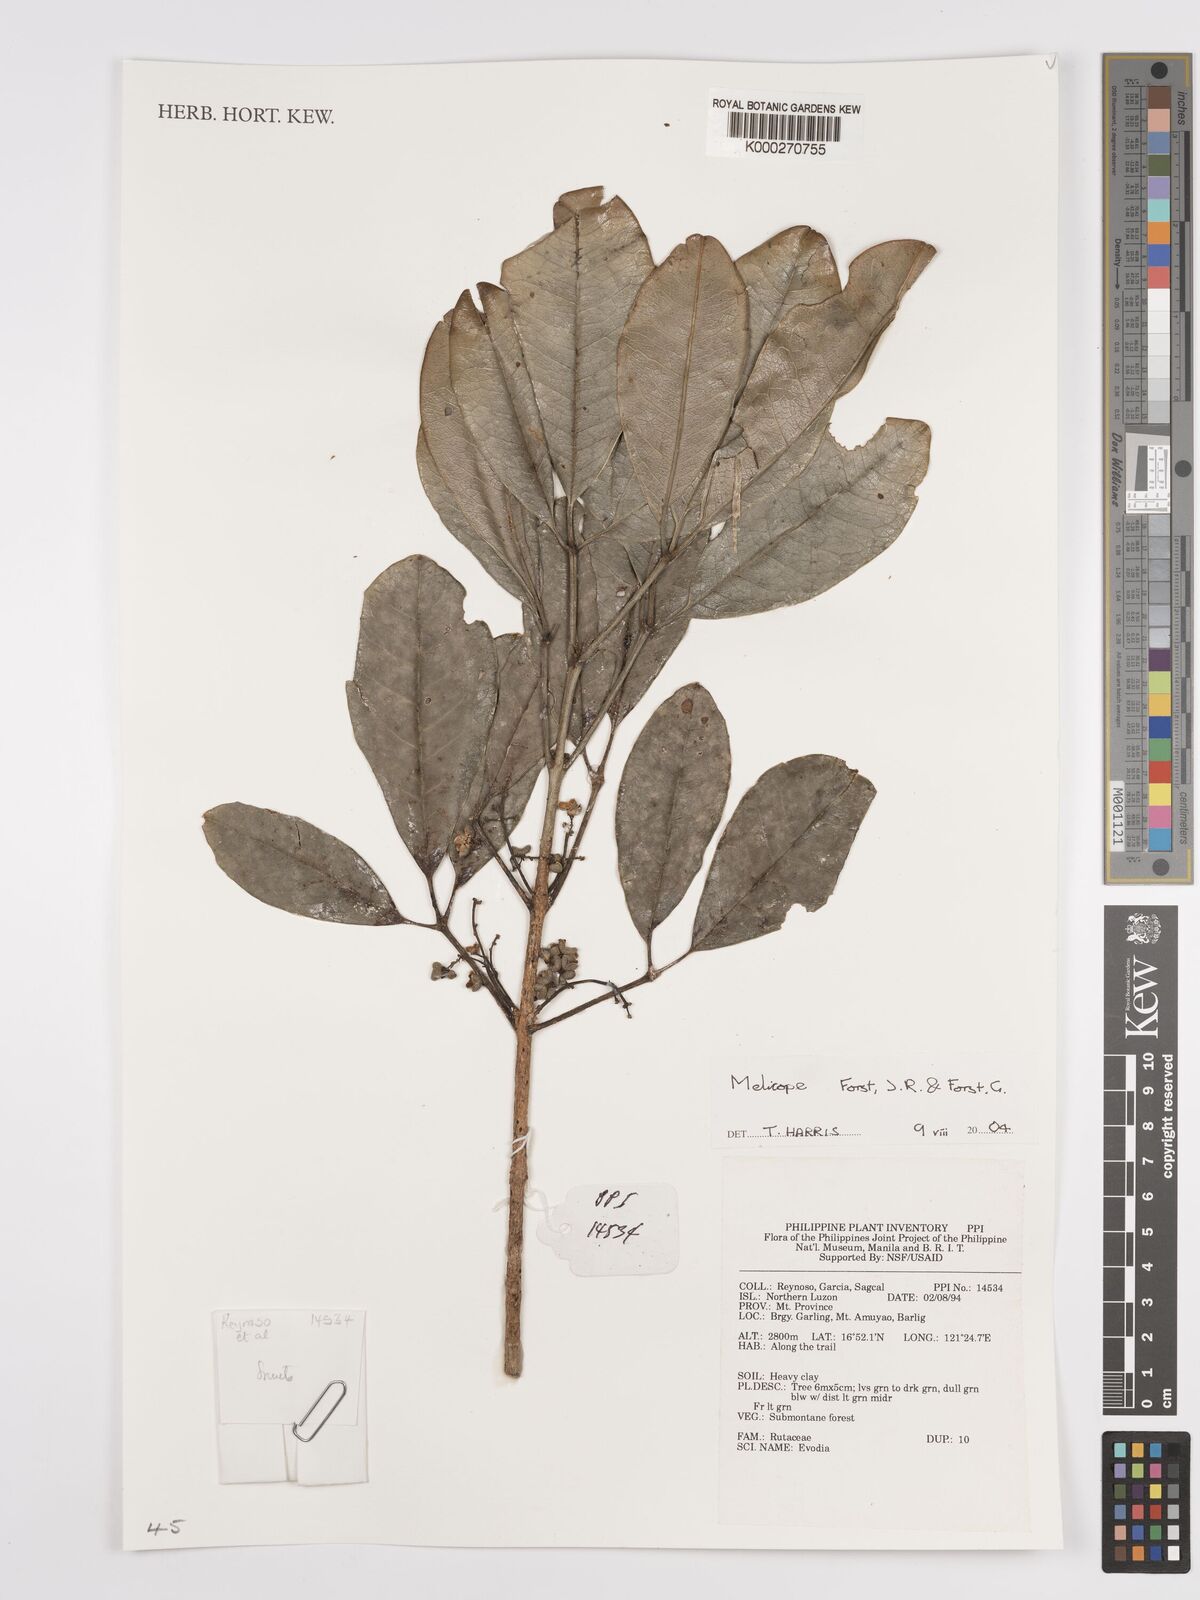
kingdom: Plantae
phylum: Tracheophyta
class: Magnoliopsida
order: Sapindales
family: Rutaceae
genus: Melicope
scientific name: Melicope
